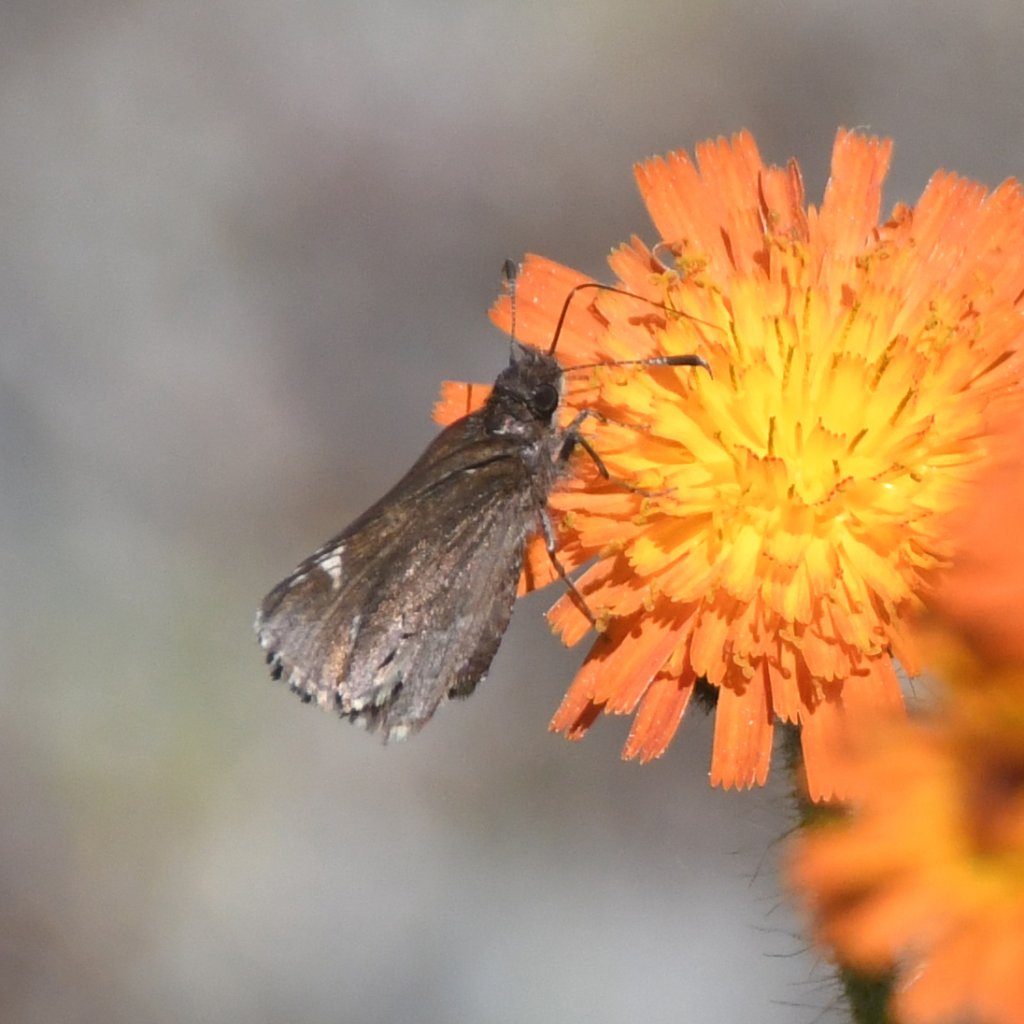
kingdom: Animalia
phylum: Arthropoda
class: Insecta
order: Lepidoptera
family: Hesperiidae
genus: Mastor
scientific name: Mastor vialis
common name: Common Roadside-Skipper
